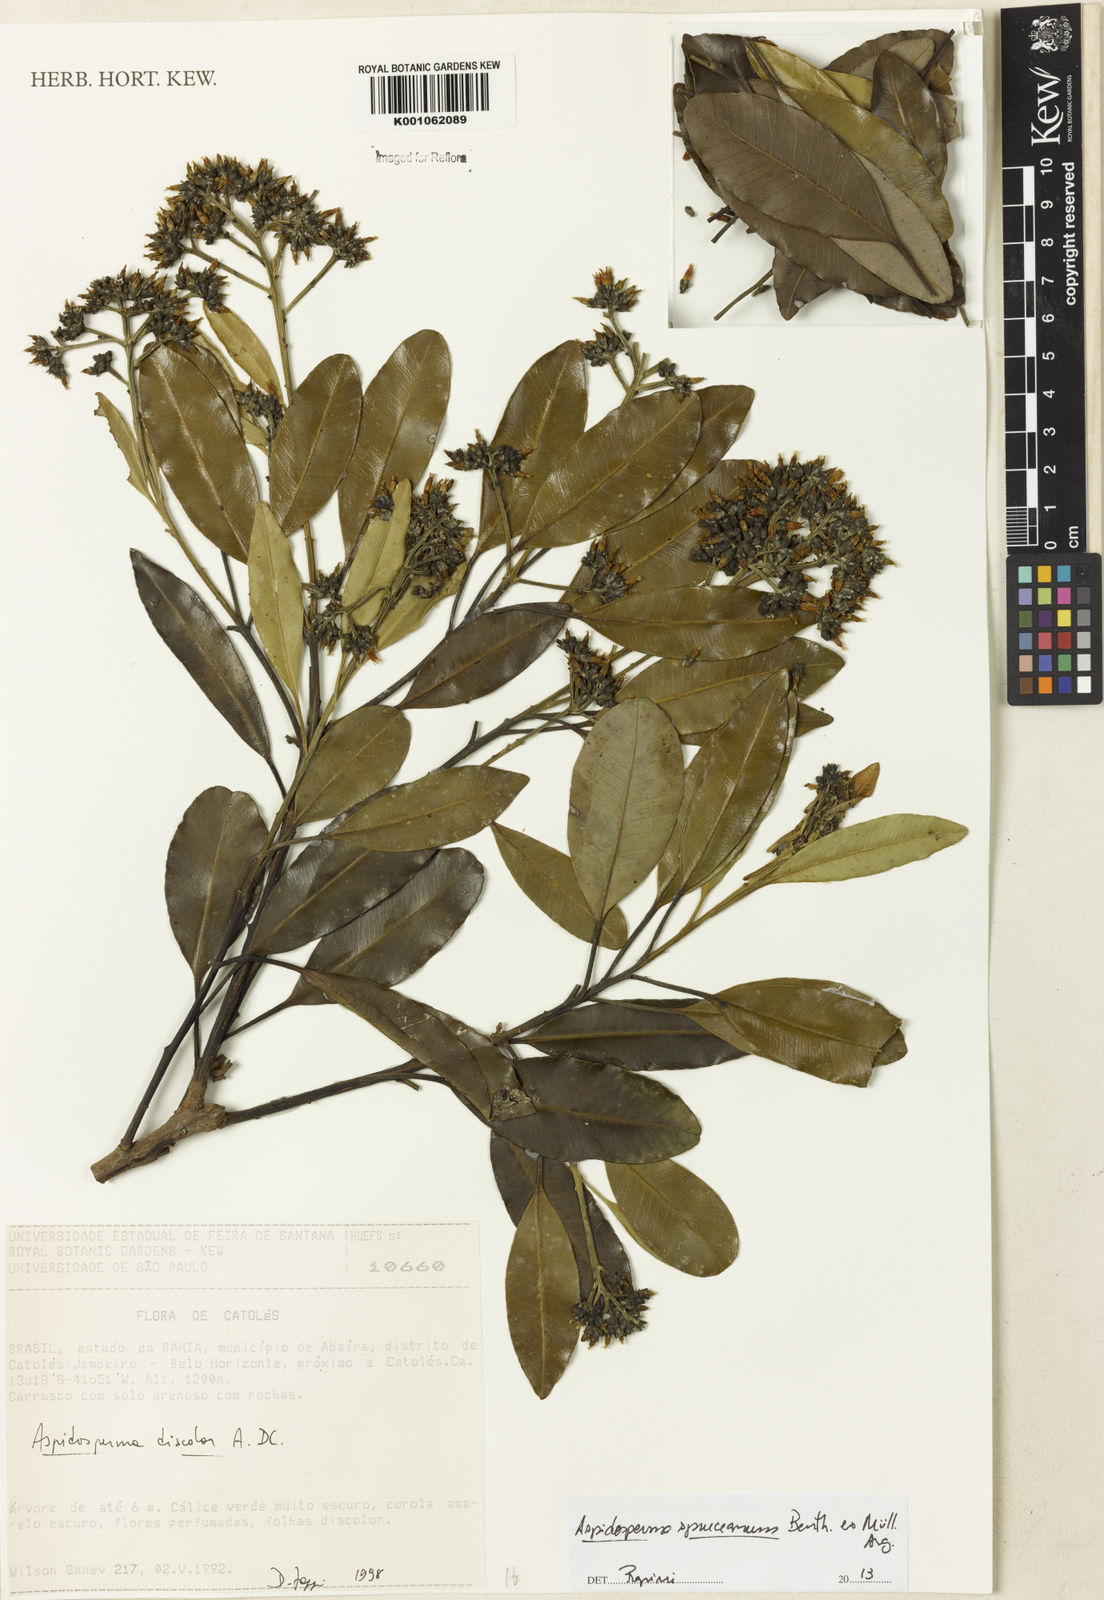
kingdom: Plantae
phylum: Tracheophyta
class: Magnoliopsida
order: Gentianales
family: Apocynaceae
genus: Aspidosperma
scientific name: Aspidosperma
